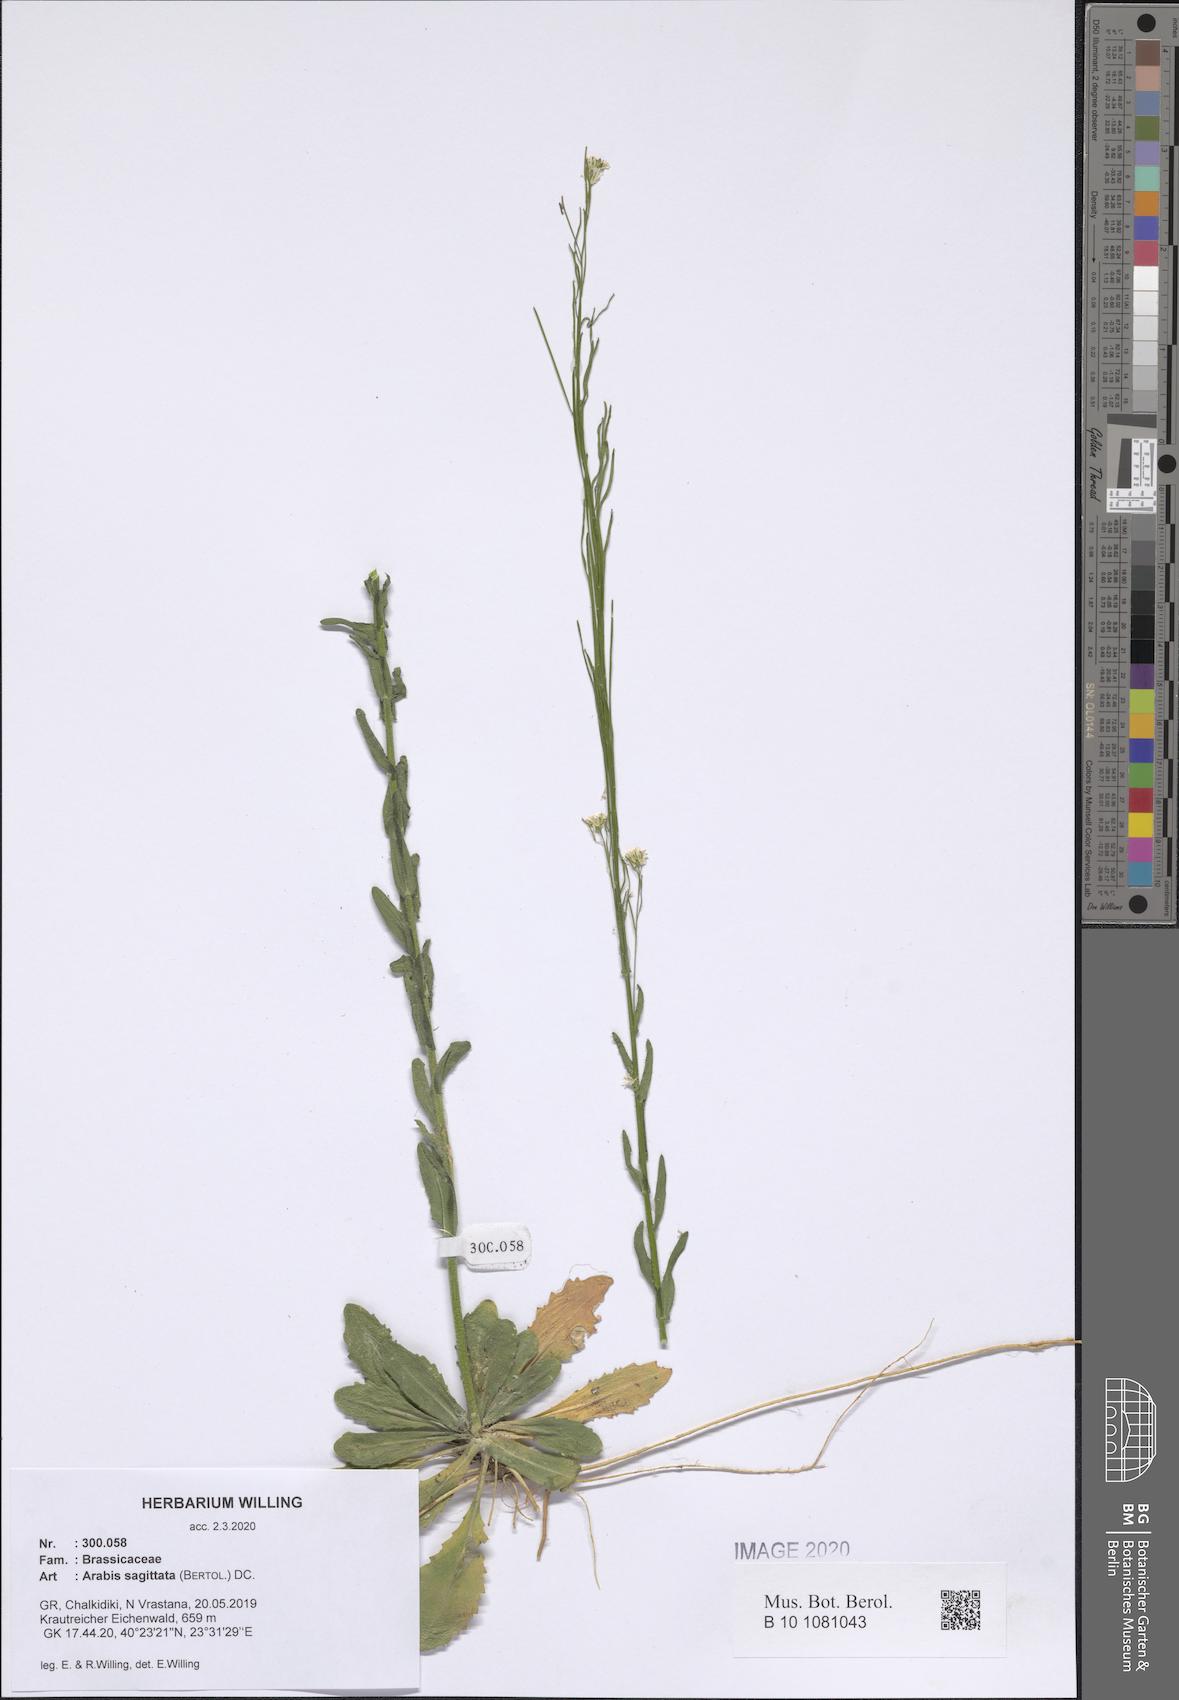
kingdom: Plantae
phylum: Tracheophyta
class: Magnoliopsida
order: Brassicales
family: Brassicaceae
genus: Arabis
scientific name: Arabis sagittata
